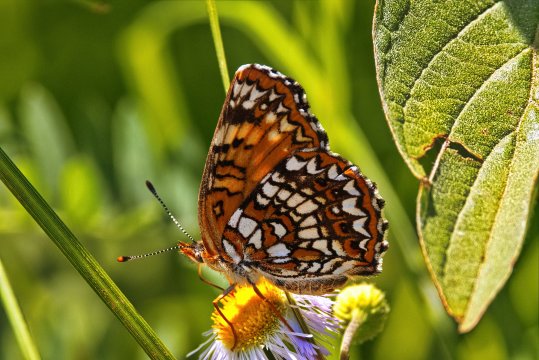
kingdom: Animalia
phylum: Arthropoda
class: Insecta
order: Lepidoptera
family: Nymphalidae
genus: Chlosyne
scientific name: Chlosyne harrisii
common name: Harris's Checkerspot
